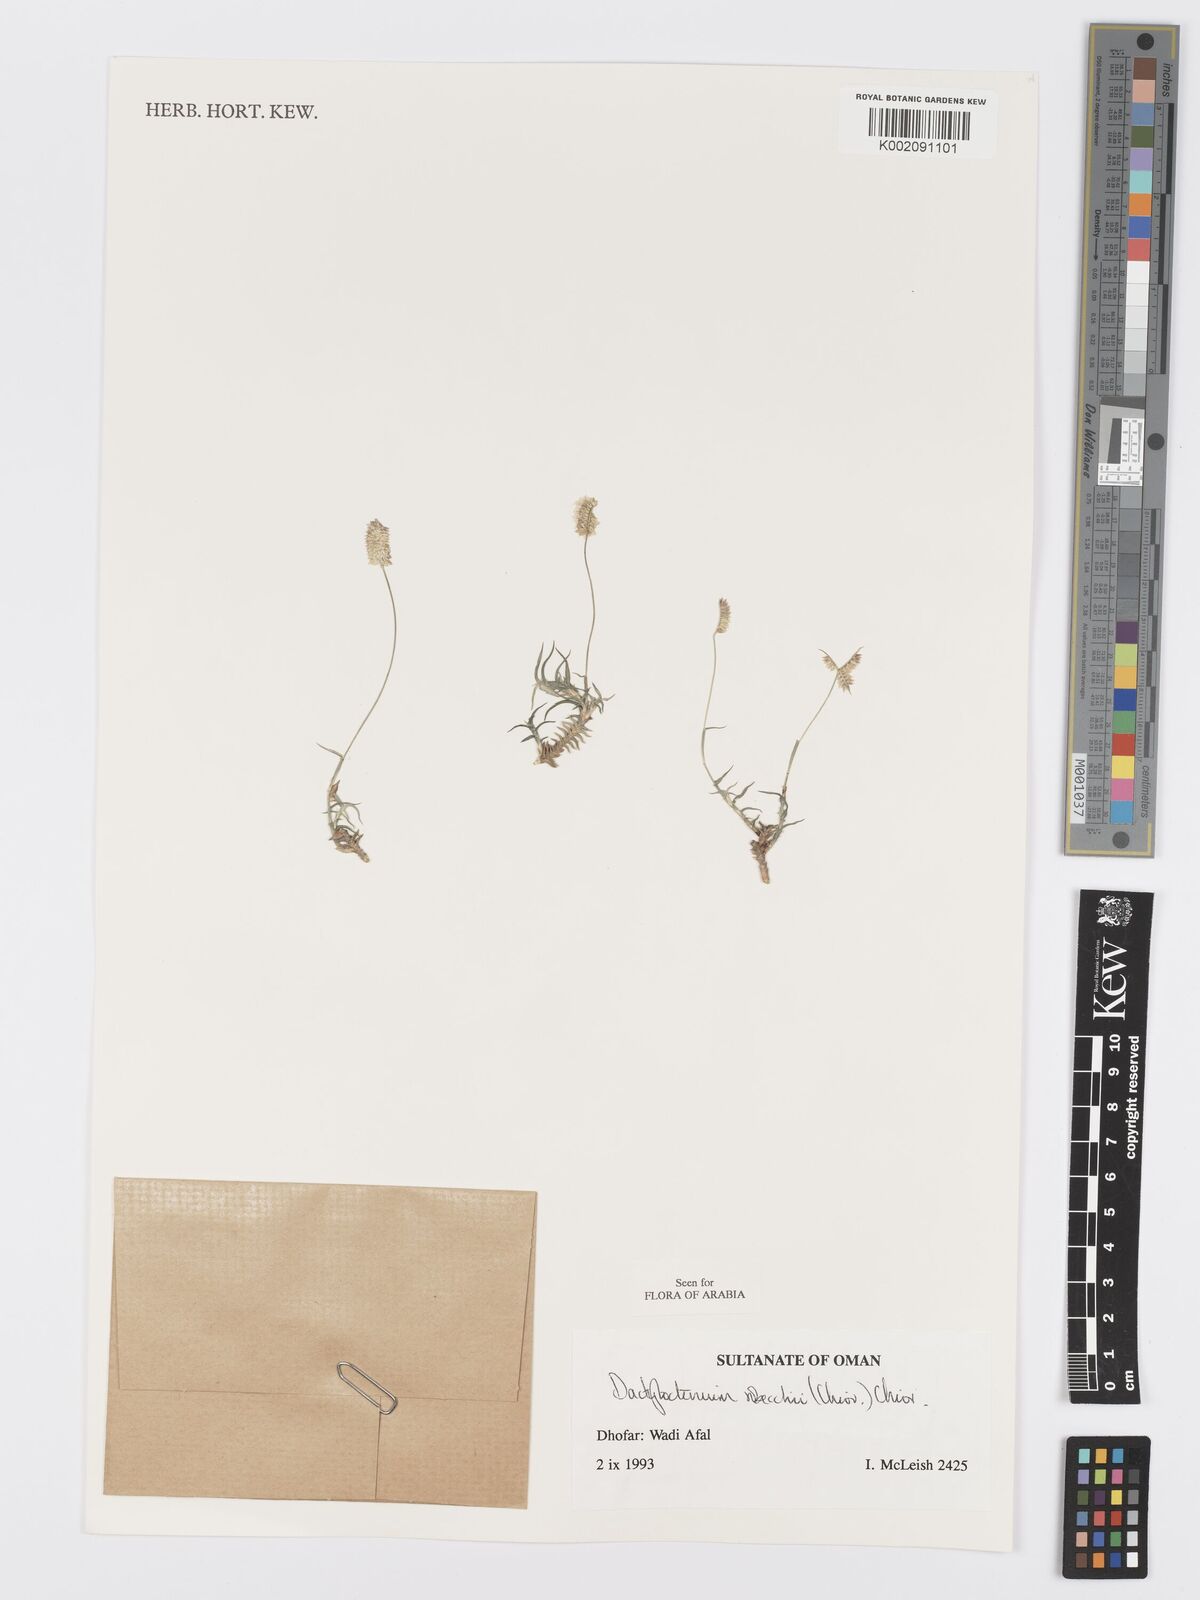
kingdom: Plantae
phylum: Tracheophyta
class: Liliopsida
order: Poales
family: Poaceae
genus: Dactyloctenium
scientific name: Dactyloctenium robecchii
